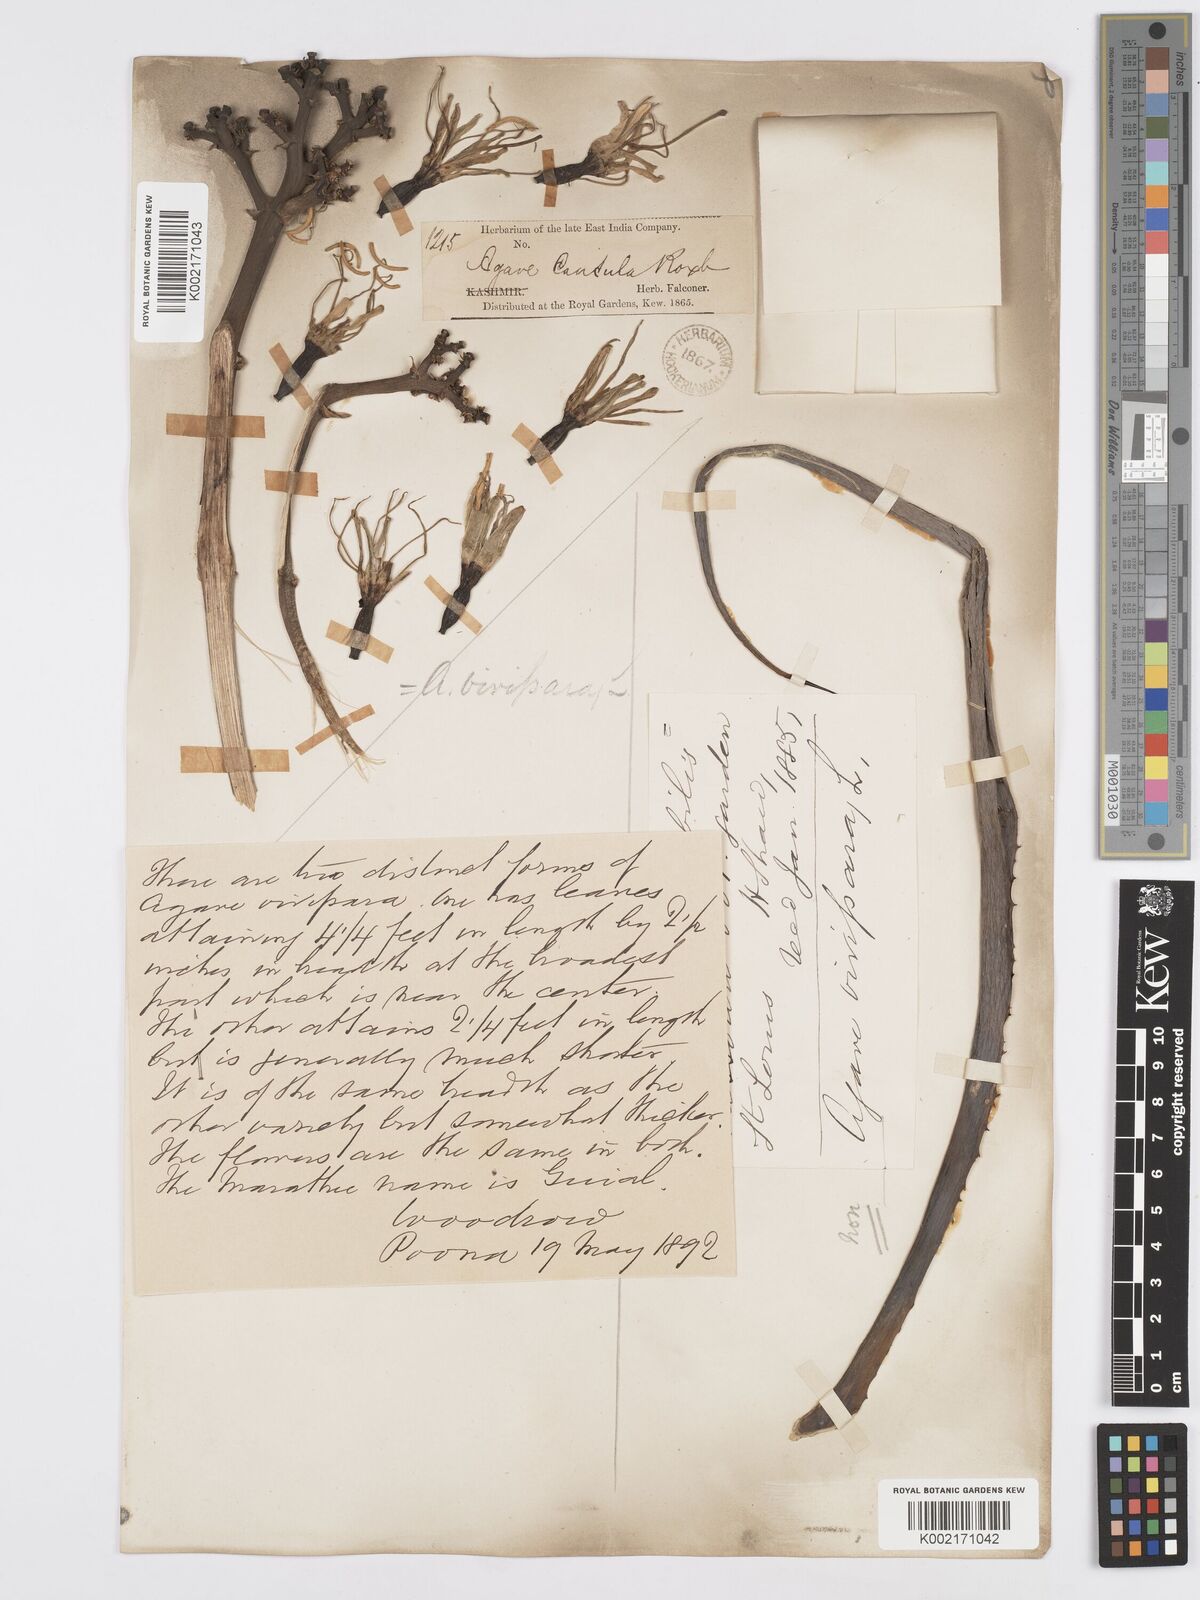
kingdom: Plantae
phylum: Tracheophyta
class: Liliopsida
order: Asparagales
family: Asparagaceae
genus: Agave
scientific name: Agave vivipara
